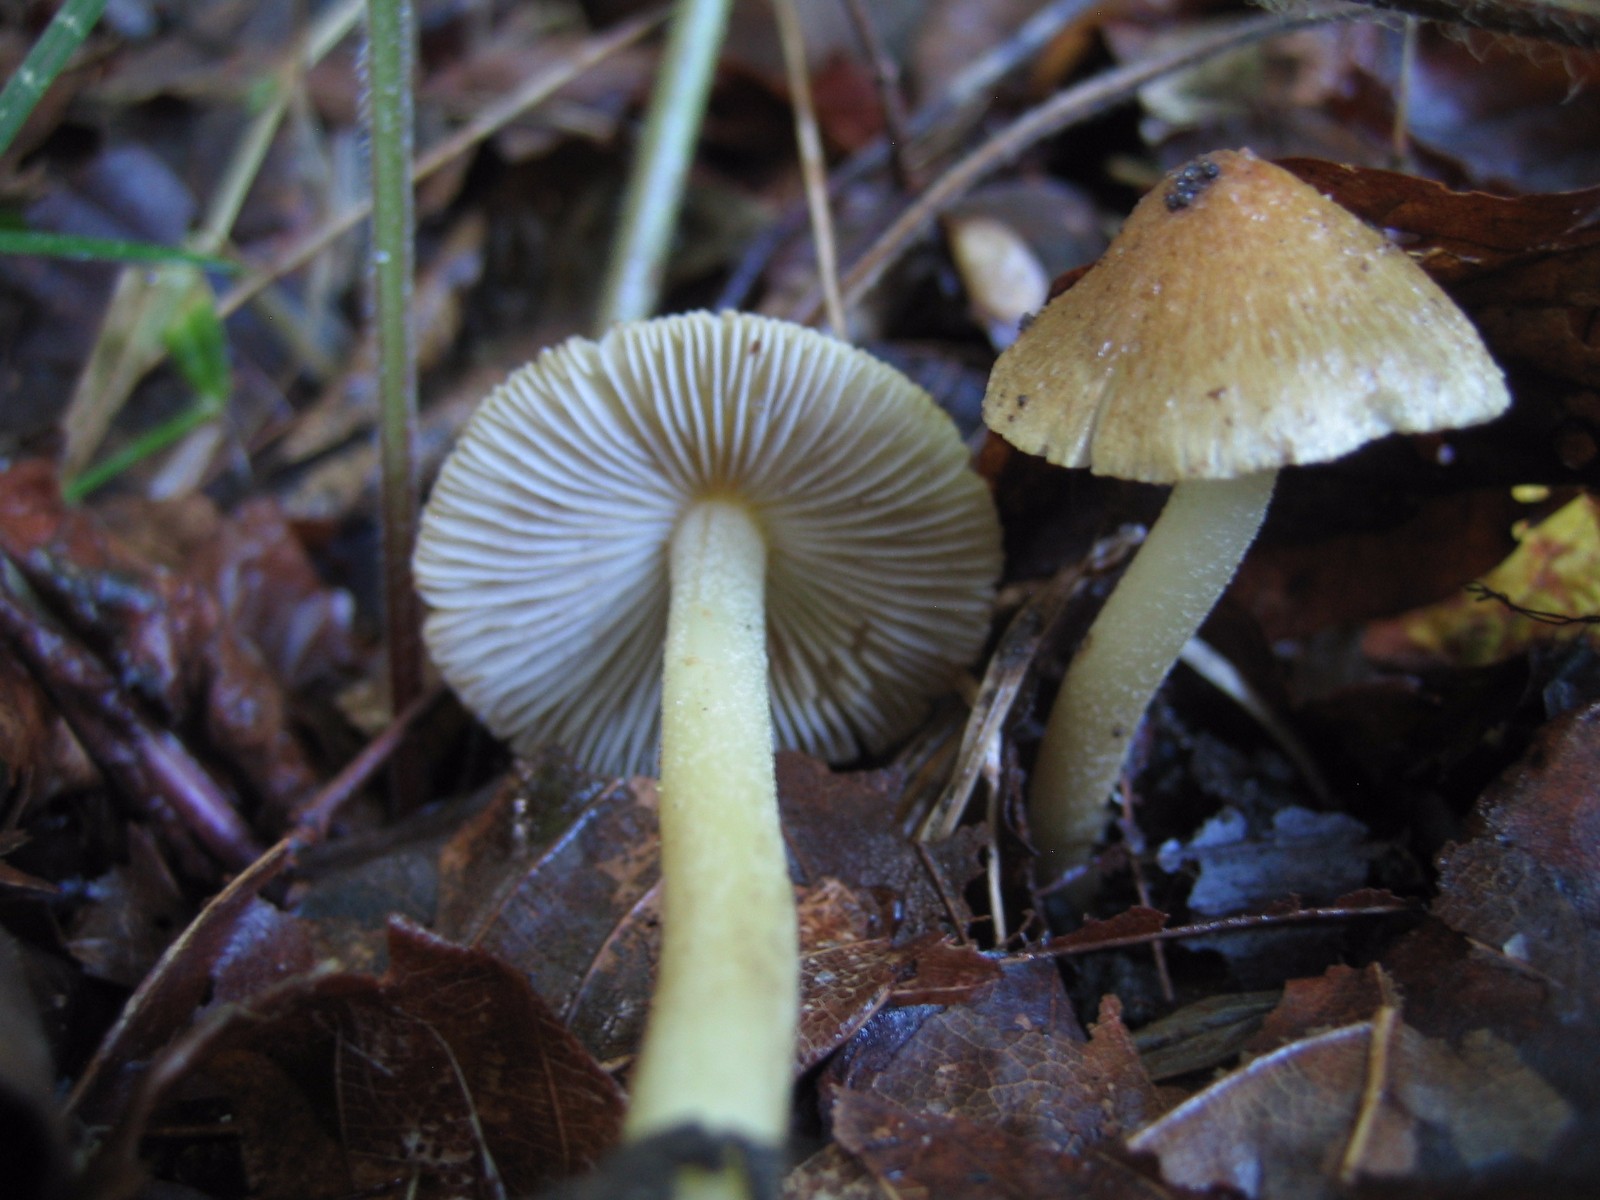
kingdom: Fungi
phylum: Basidiomycota
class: Agaricomycetes
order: Agaricales
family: Inocybaceae
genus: Inocybe
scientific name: Inocybe
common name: trævlhat
